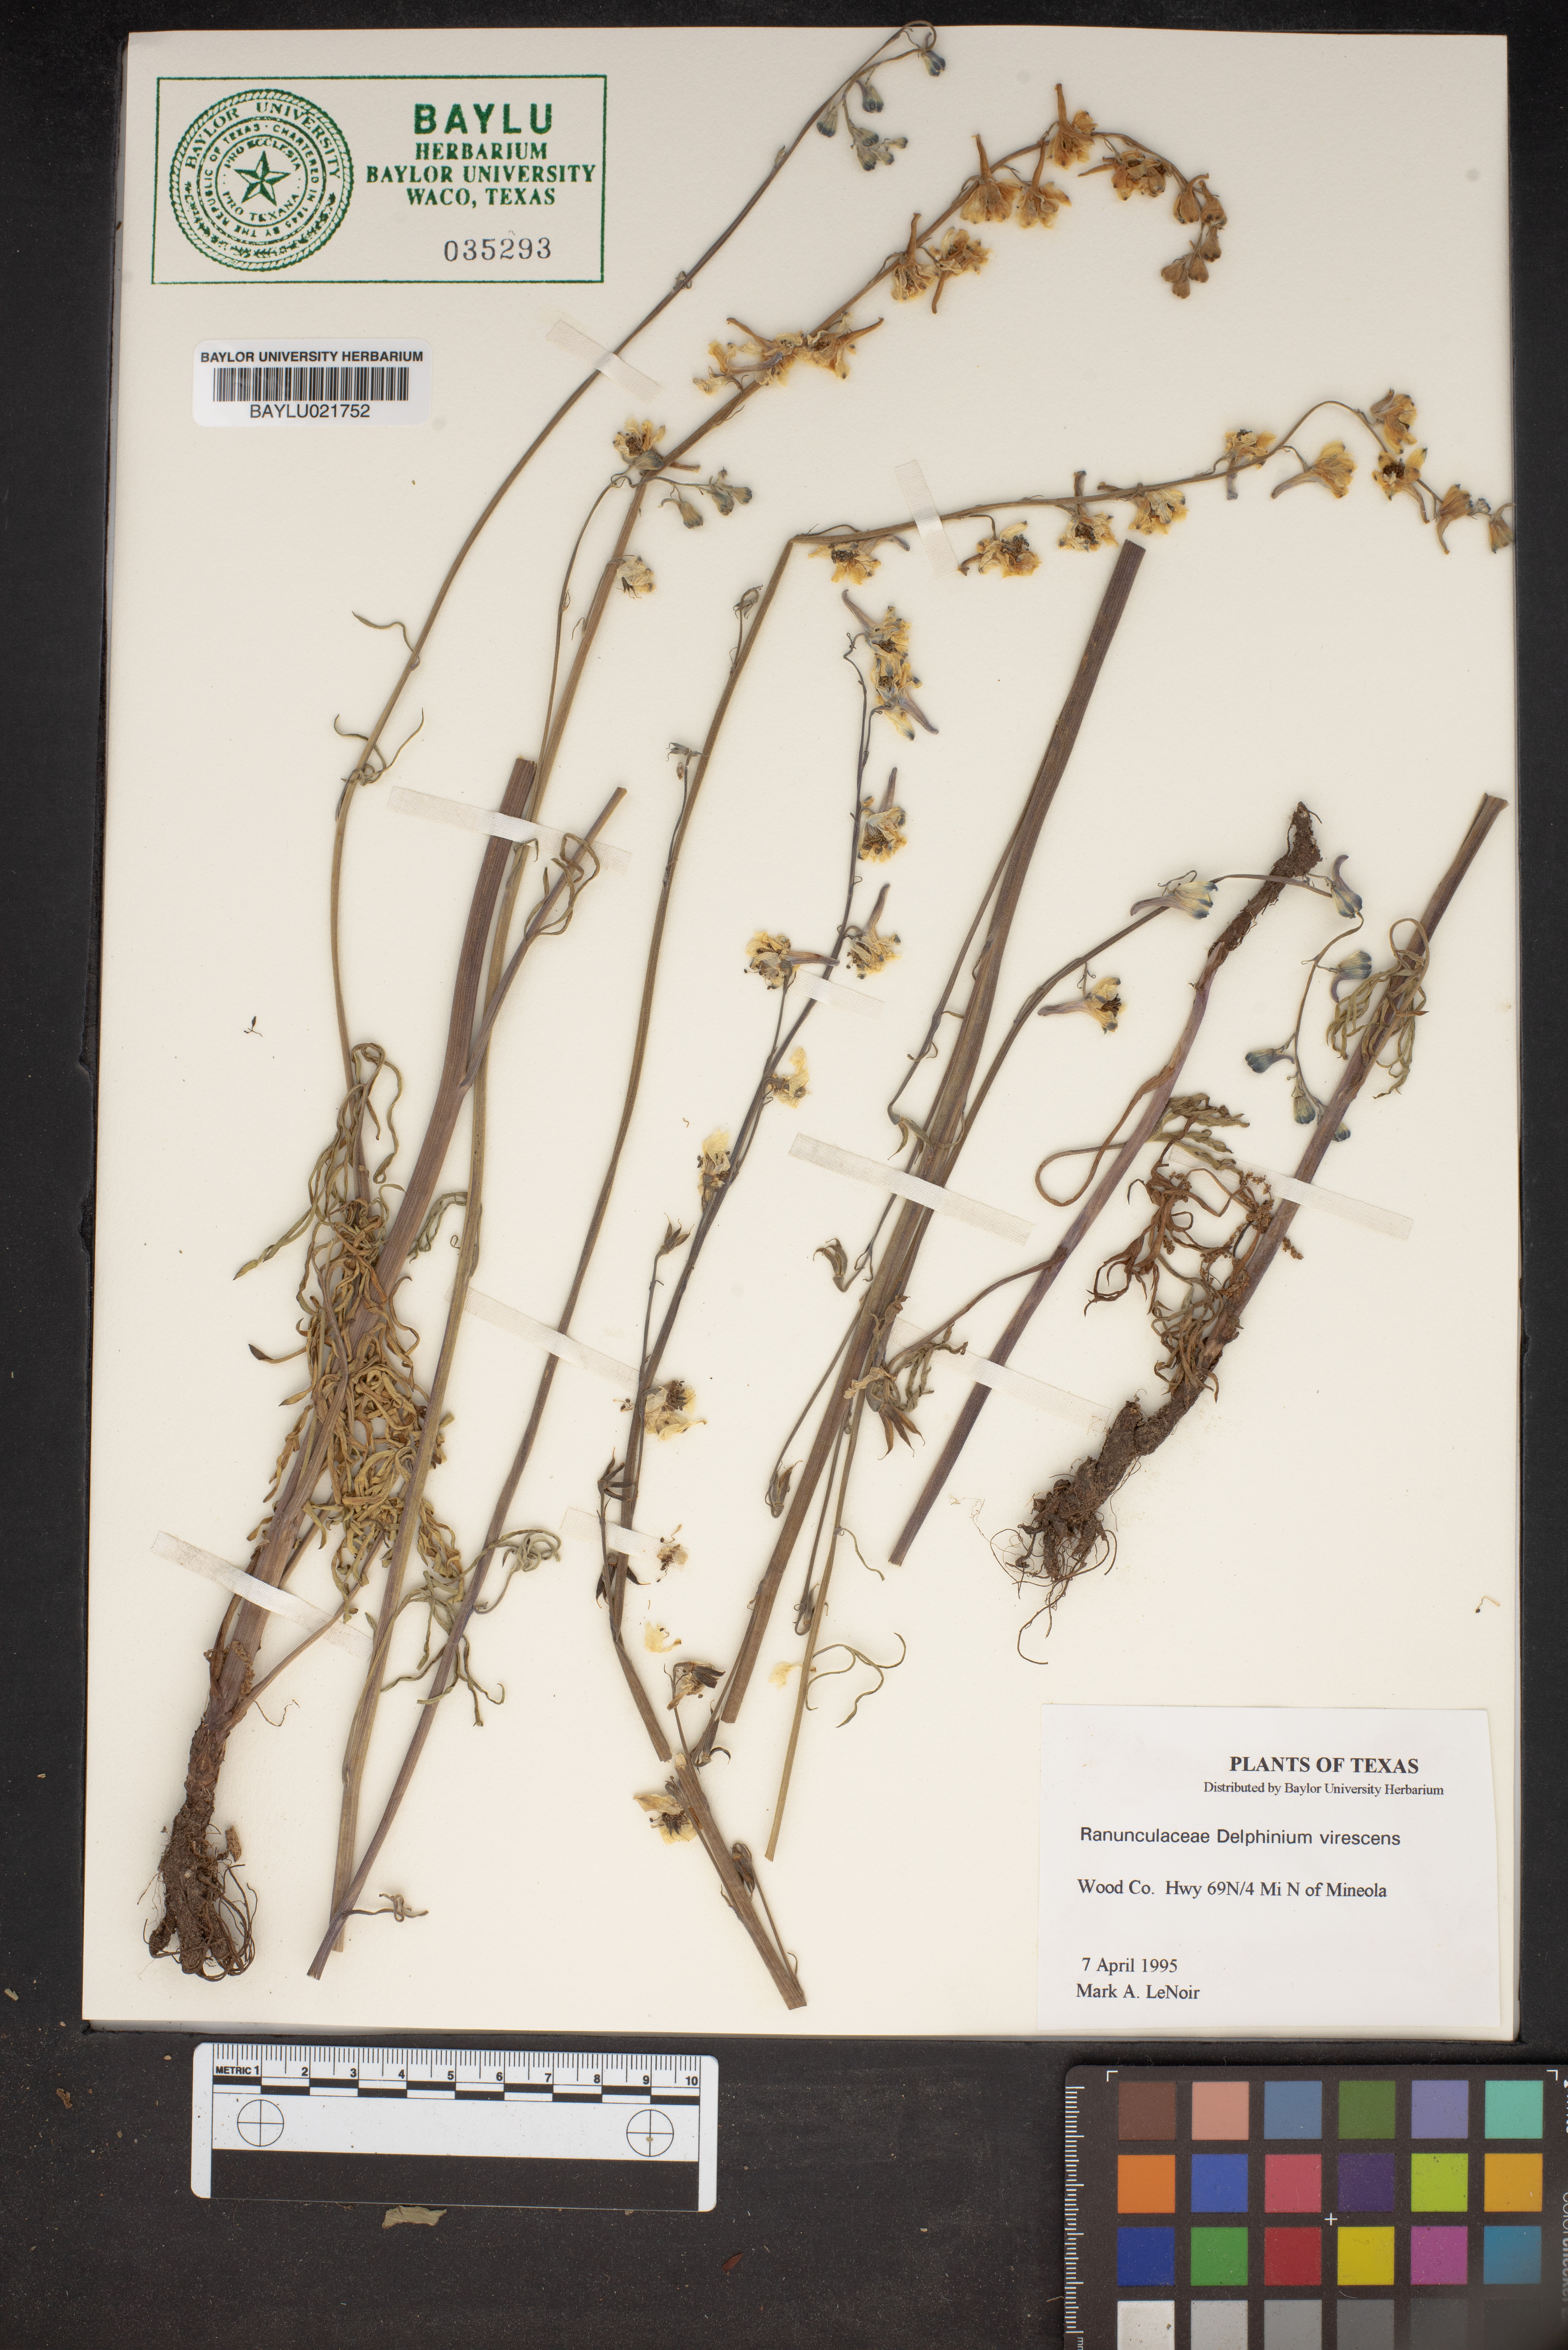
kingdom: Plantae
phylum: Tracheophyta
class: Magnoliopsida
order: Ranunculales
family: Ranunculaceae
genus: Delphinium
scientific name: Delphinium carolinianum
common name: Carolina larkspur
